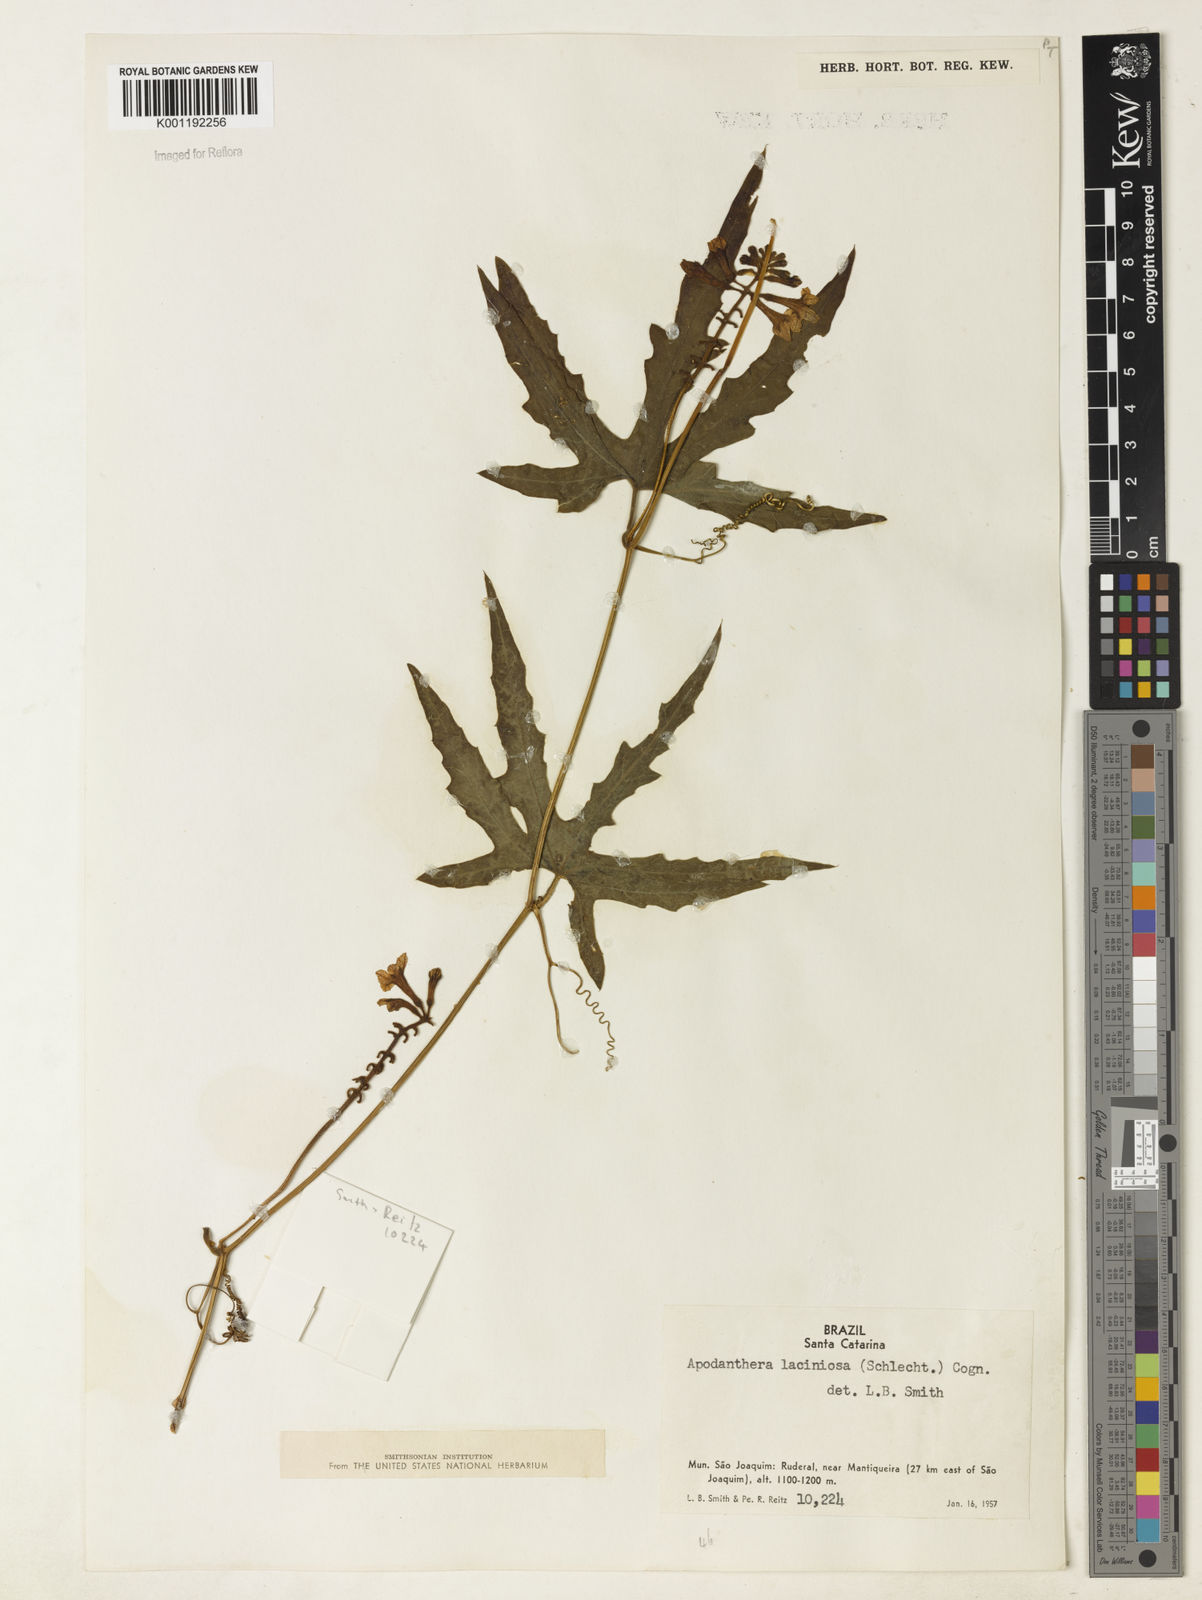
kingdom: Plantae
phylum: Tracheophyta
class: Magnoliopsida
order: Cucurbitales
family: Cucurbitaceae
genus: Apodanthera
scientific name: Apodanthera laciniosa
